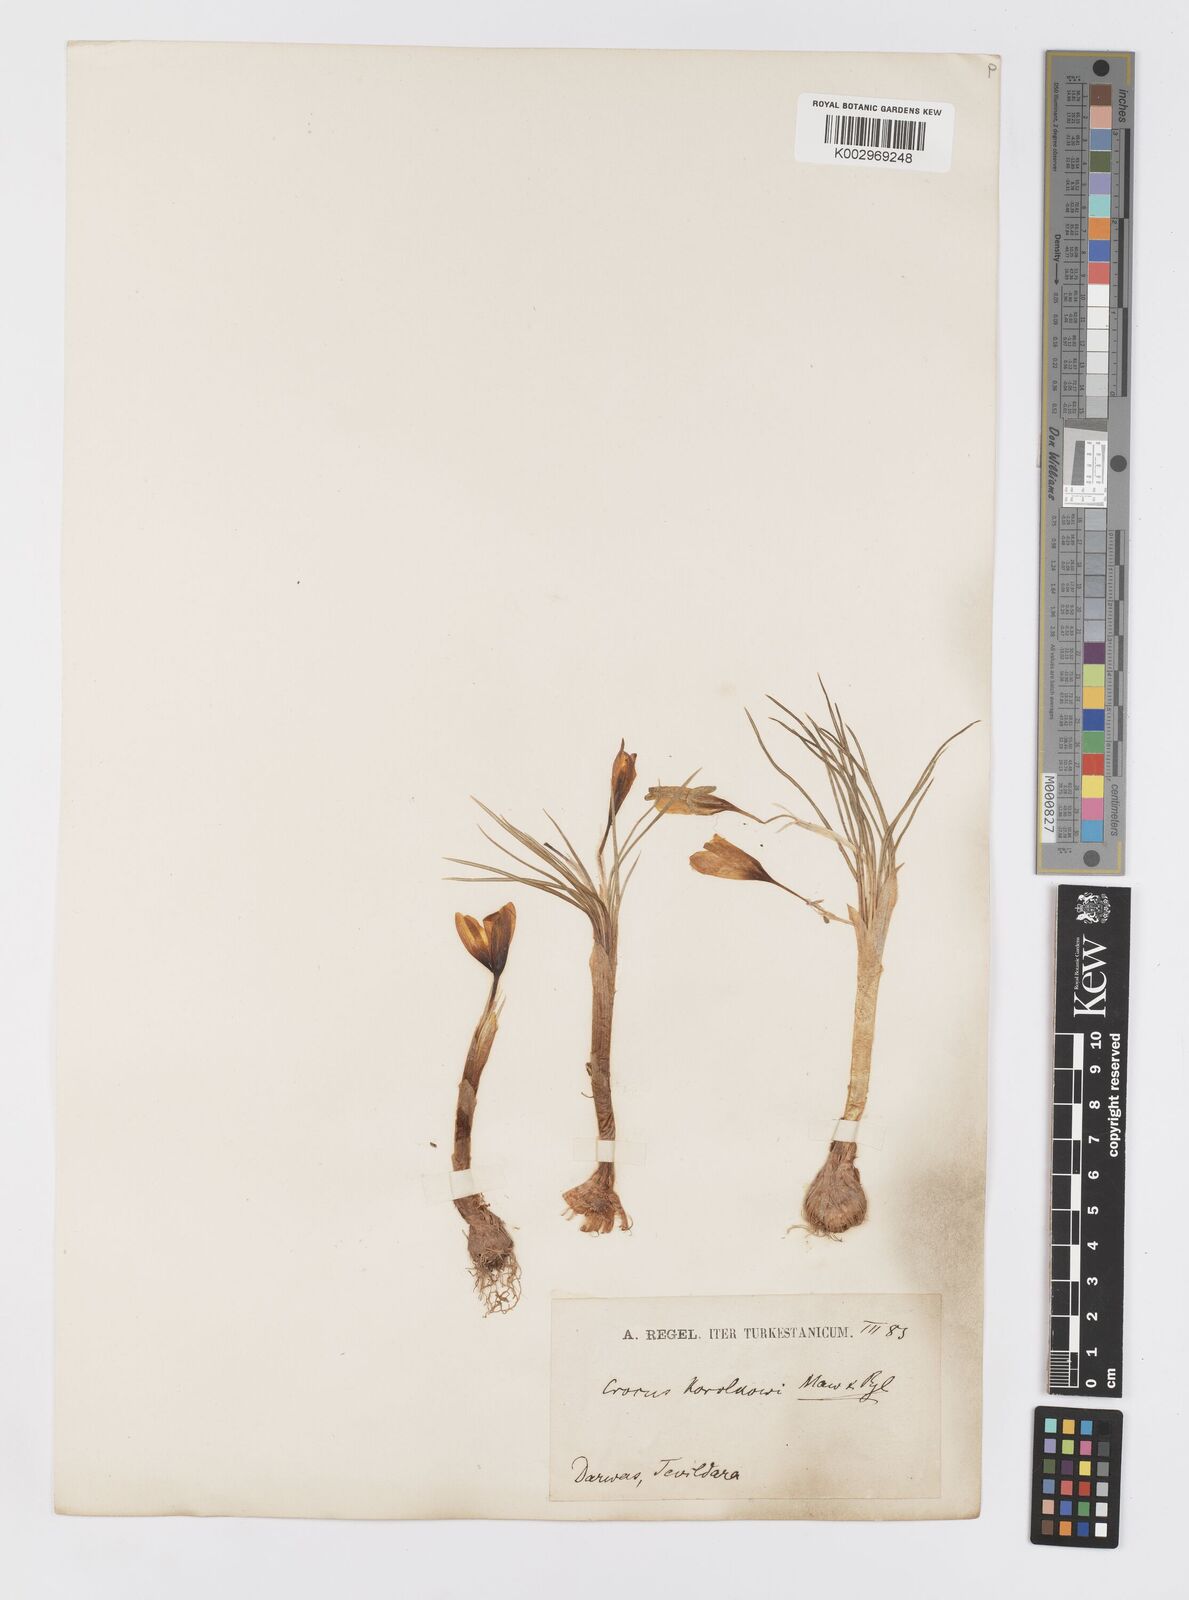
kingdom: Plantae
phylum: Tracheophyta
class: Liliopsida
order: Asparagales
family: Iridaceae
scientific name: Iridaceae
